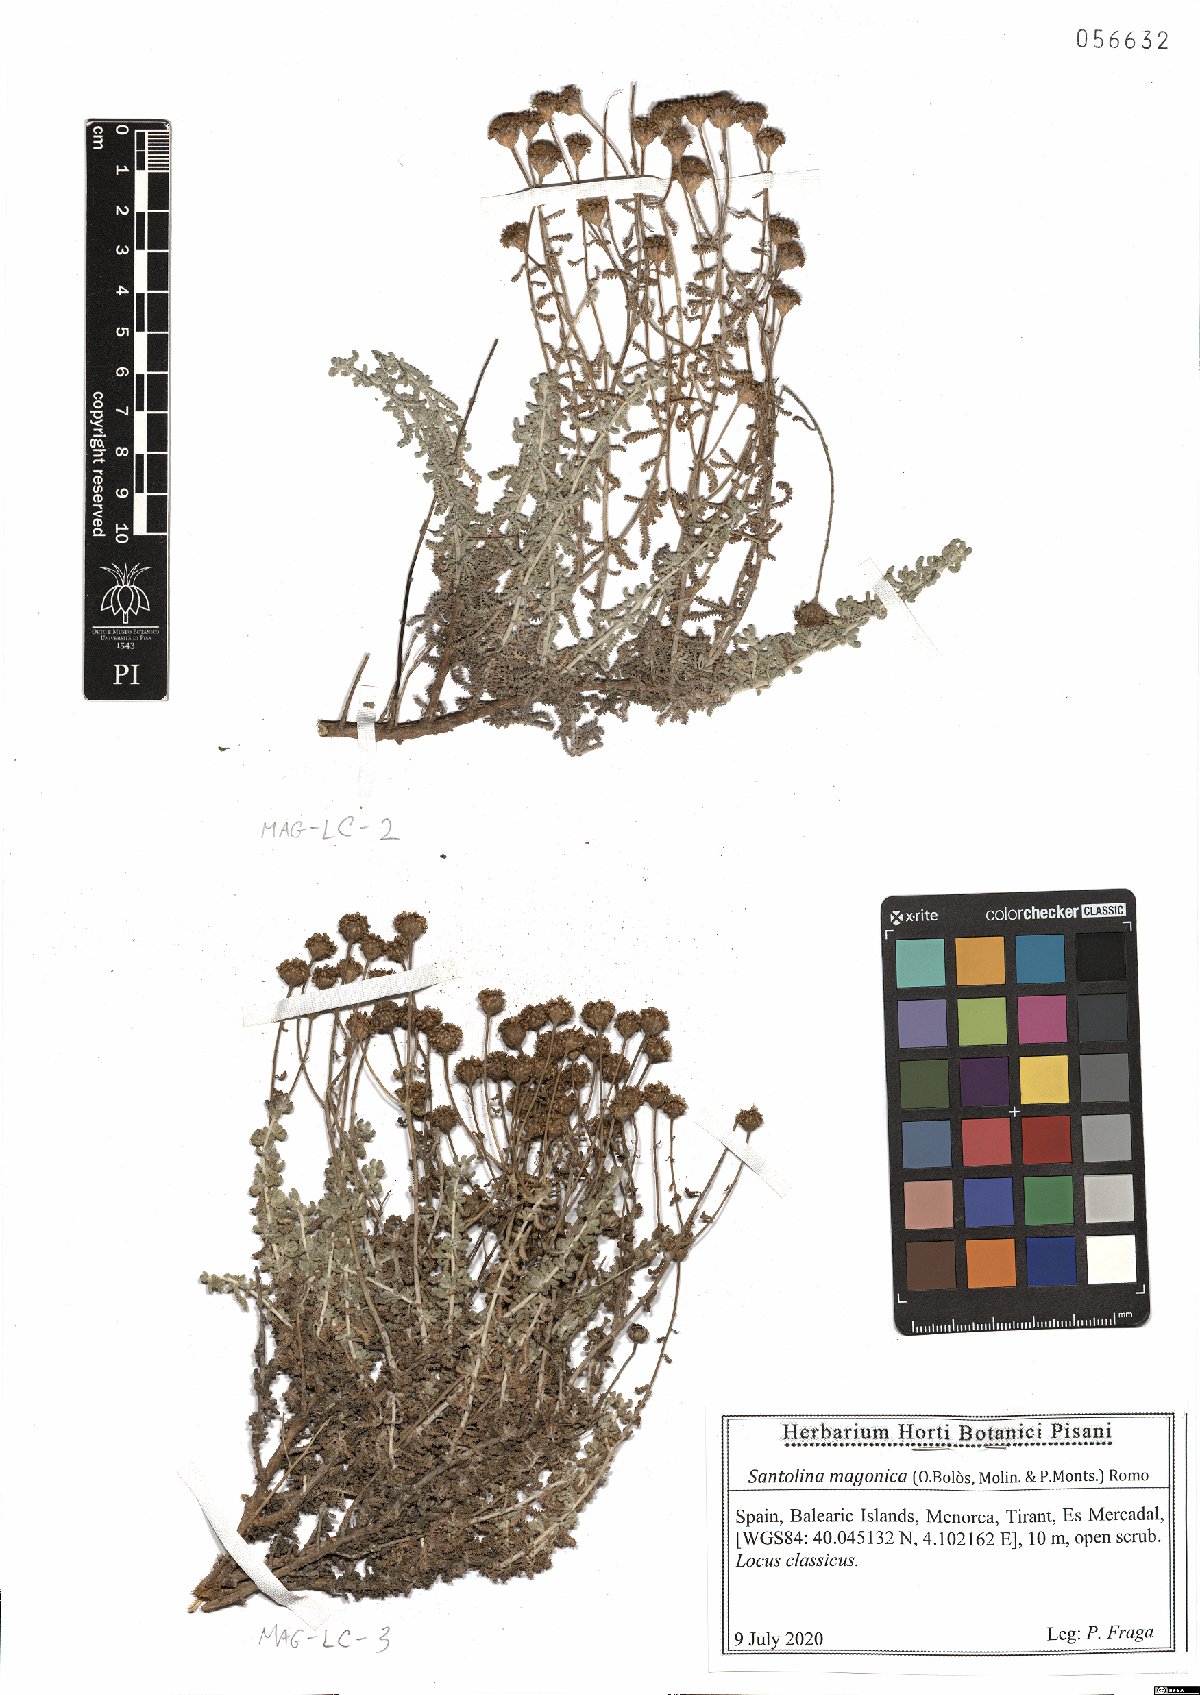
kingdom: Plantae
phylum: Tracheophyta
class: Magnoliopsida
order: Asterales
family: Asteraceae
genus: Santolina
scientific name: Santolina magonica
